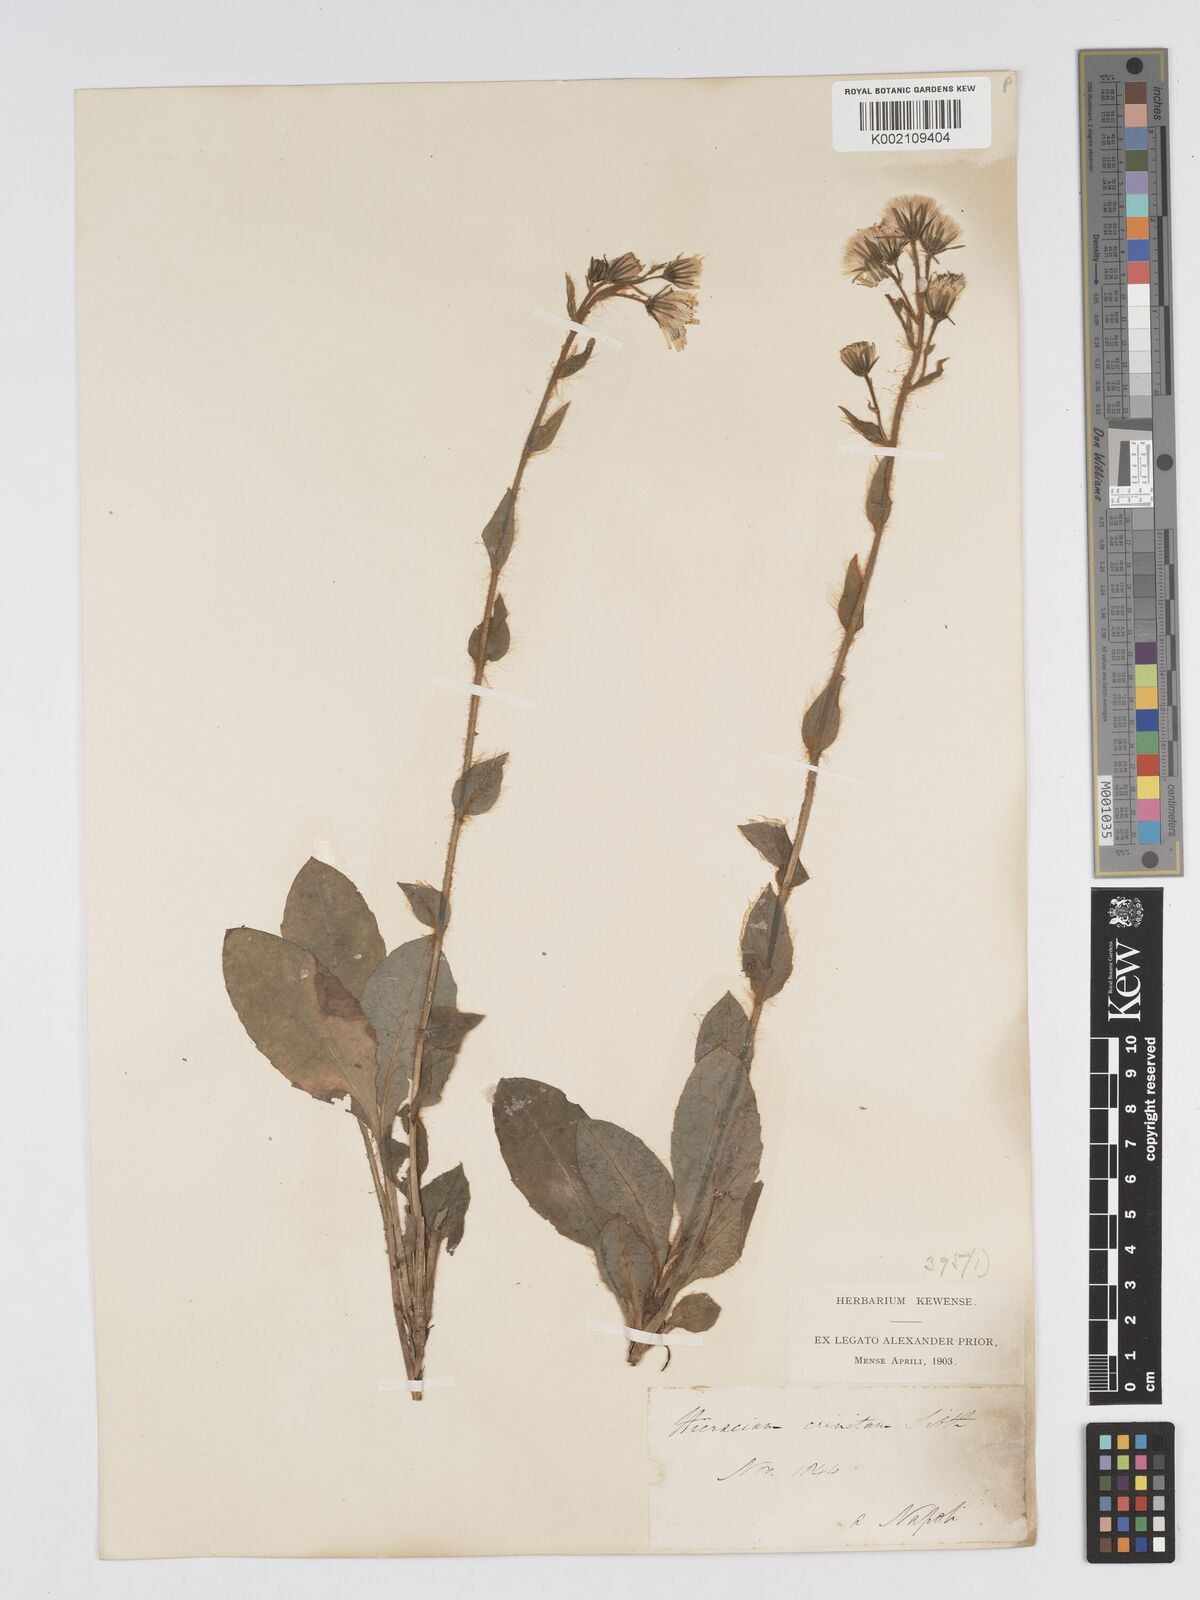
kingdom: Plantae
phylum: Tracheophyta
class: Magnoliopsida
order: Asterales
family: Asteraceae
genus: Hieracium
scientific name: Hieracium racemosum
